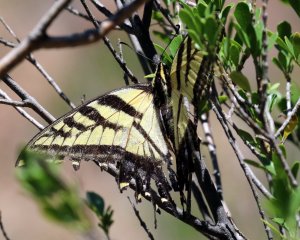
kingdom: Animalia
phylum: Arthropoda
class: Insecta
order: Lepidoptera
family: Papilionidae
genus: Papilio
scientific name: Papilio multicaudata
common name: Two-tailed Swallowtail
